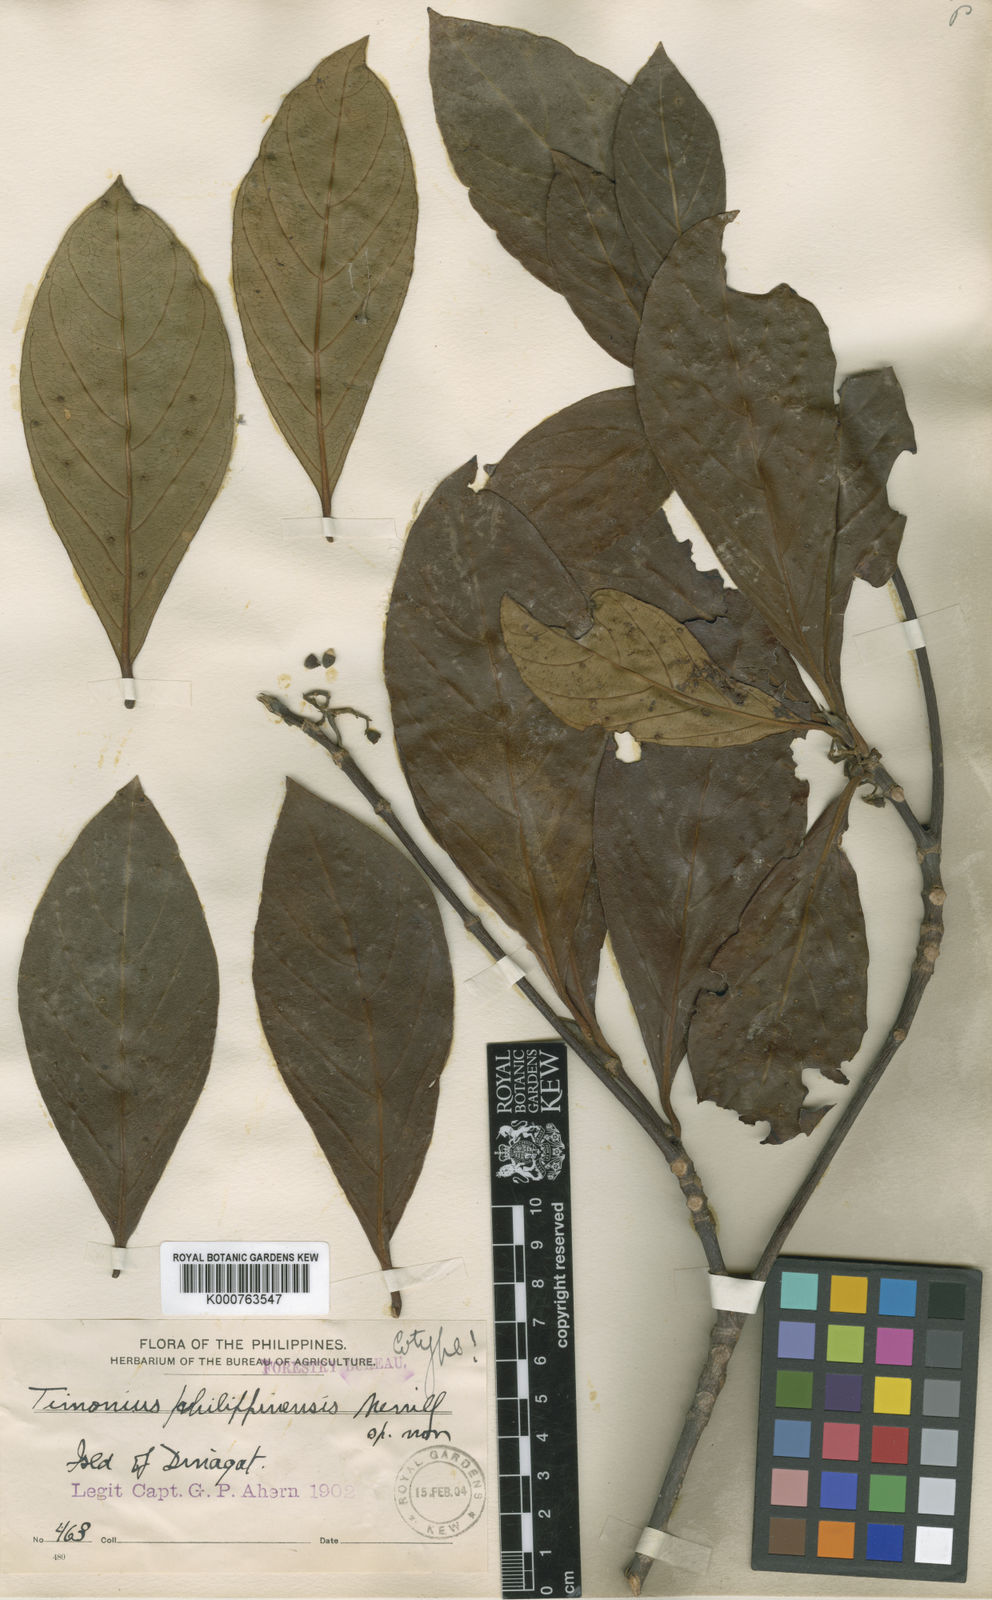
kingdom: Plantae
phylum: Tracheophyta
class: Magnoliopsida
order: Gentianales
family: Rubiaceae
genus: Timonius
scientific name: Timonius philippinensis
